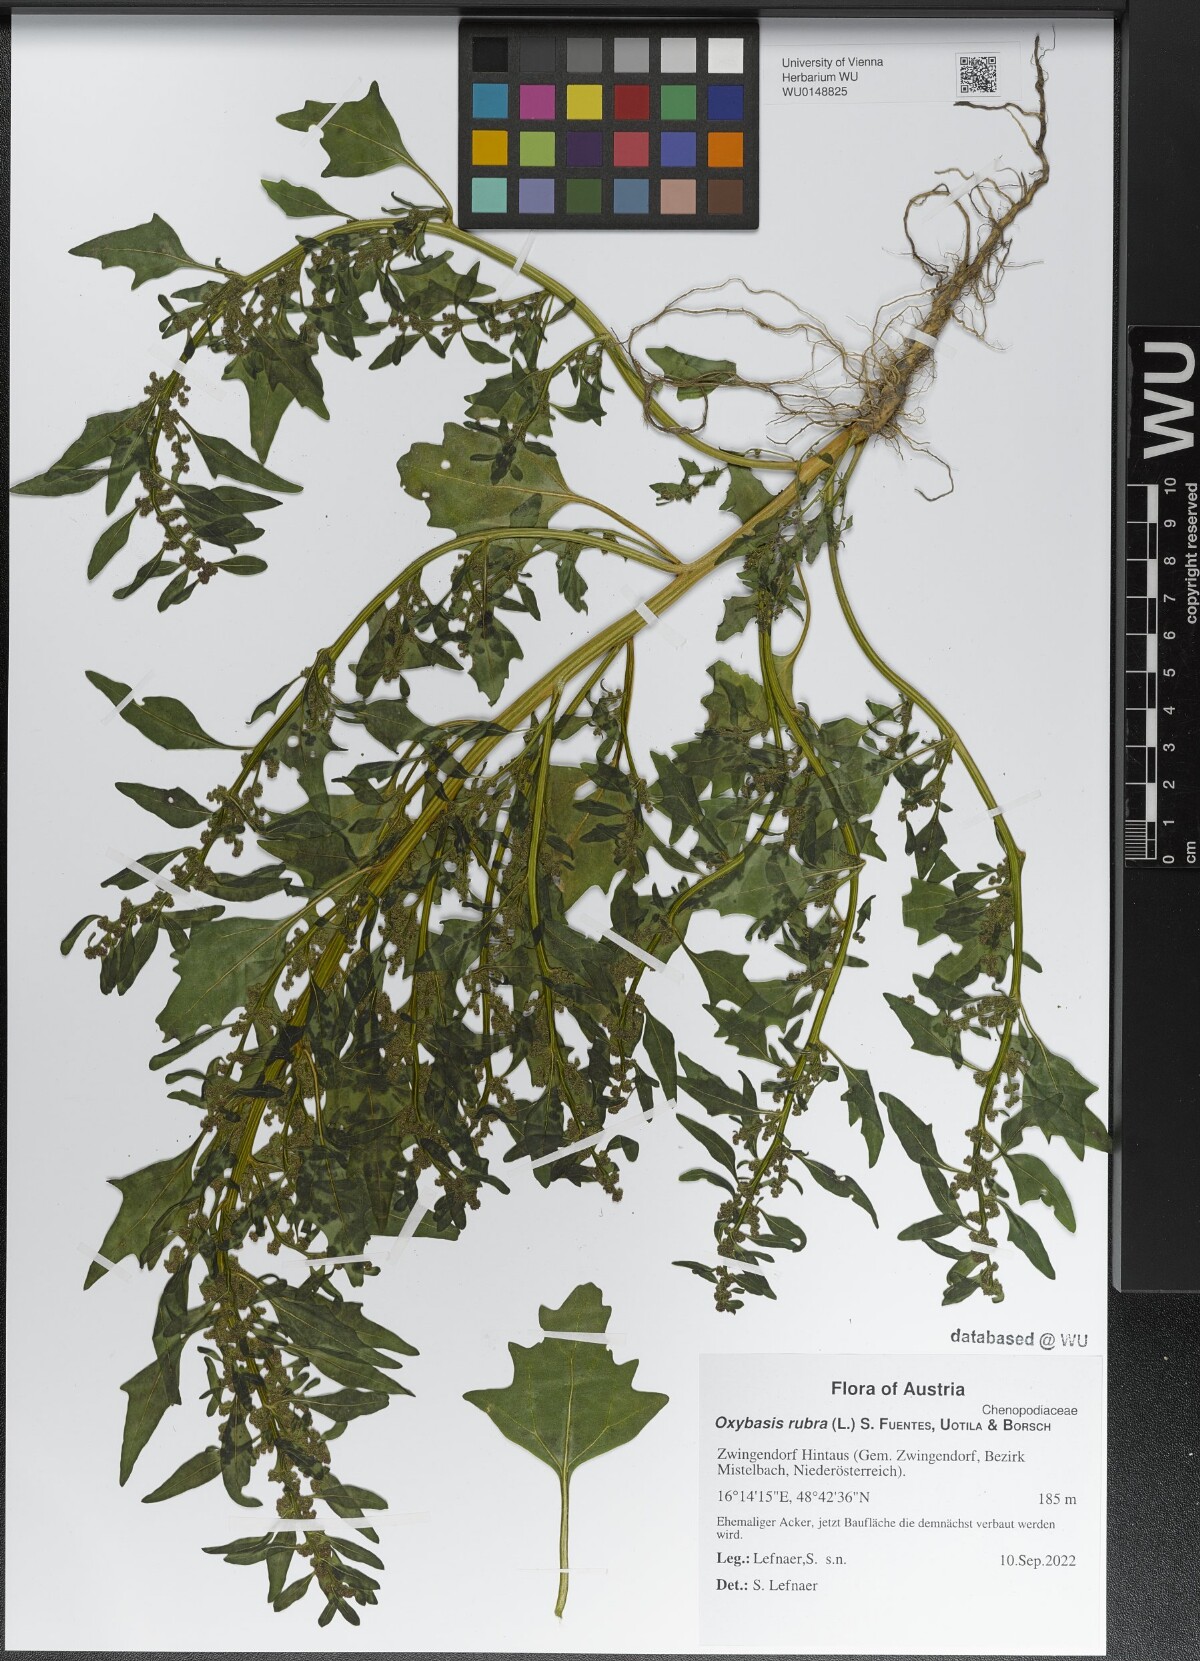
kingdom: Plantae
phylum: Tracheophyta
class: Magnoliopsida
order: Caryophyllales
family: Amaranthaceae
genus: Oxybasis
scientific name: Oxybasis rubra
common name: Red goosefoot
